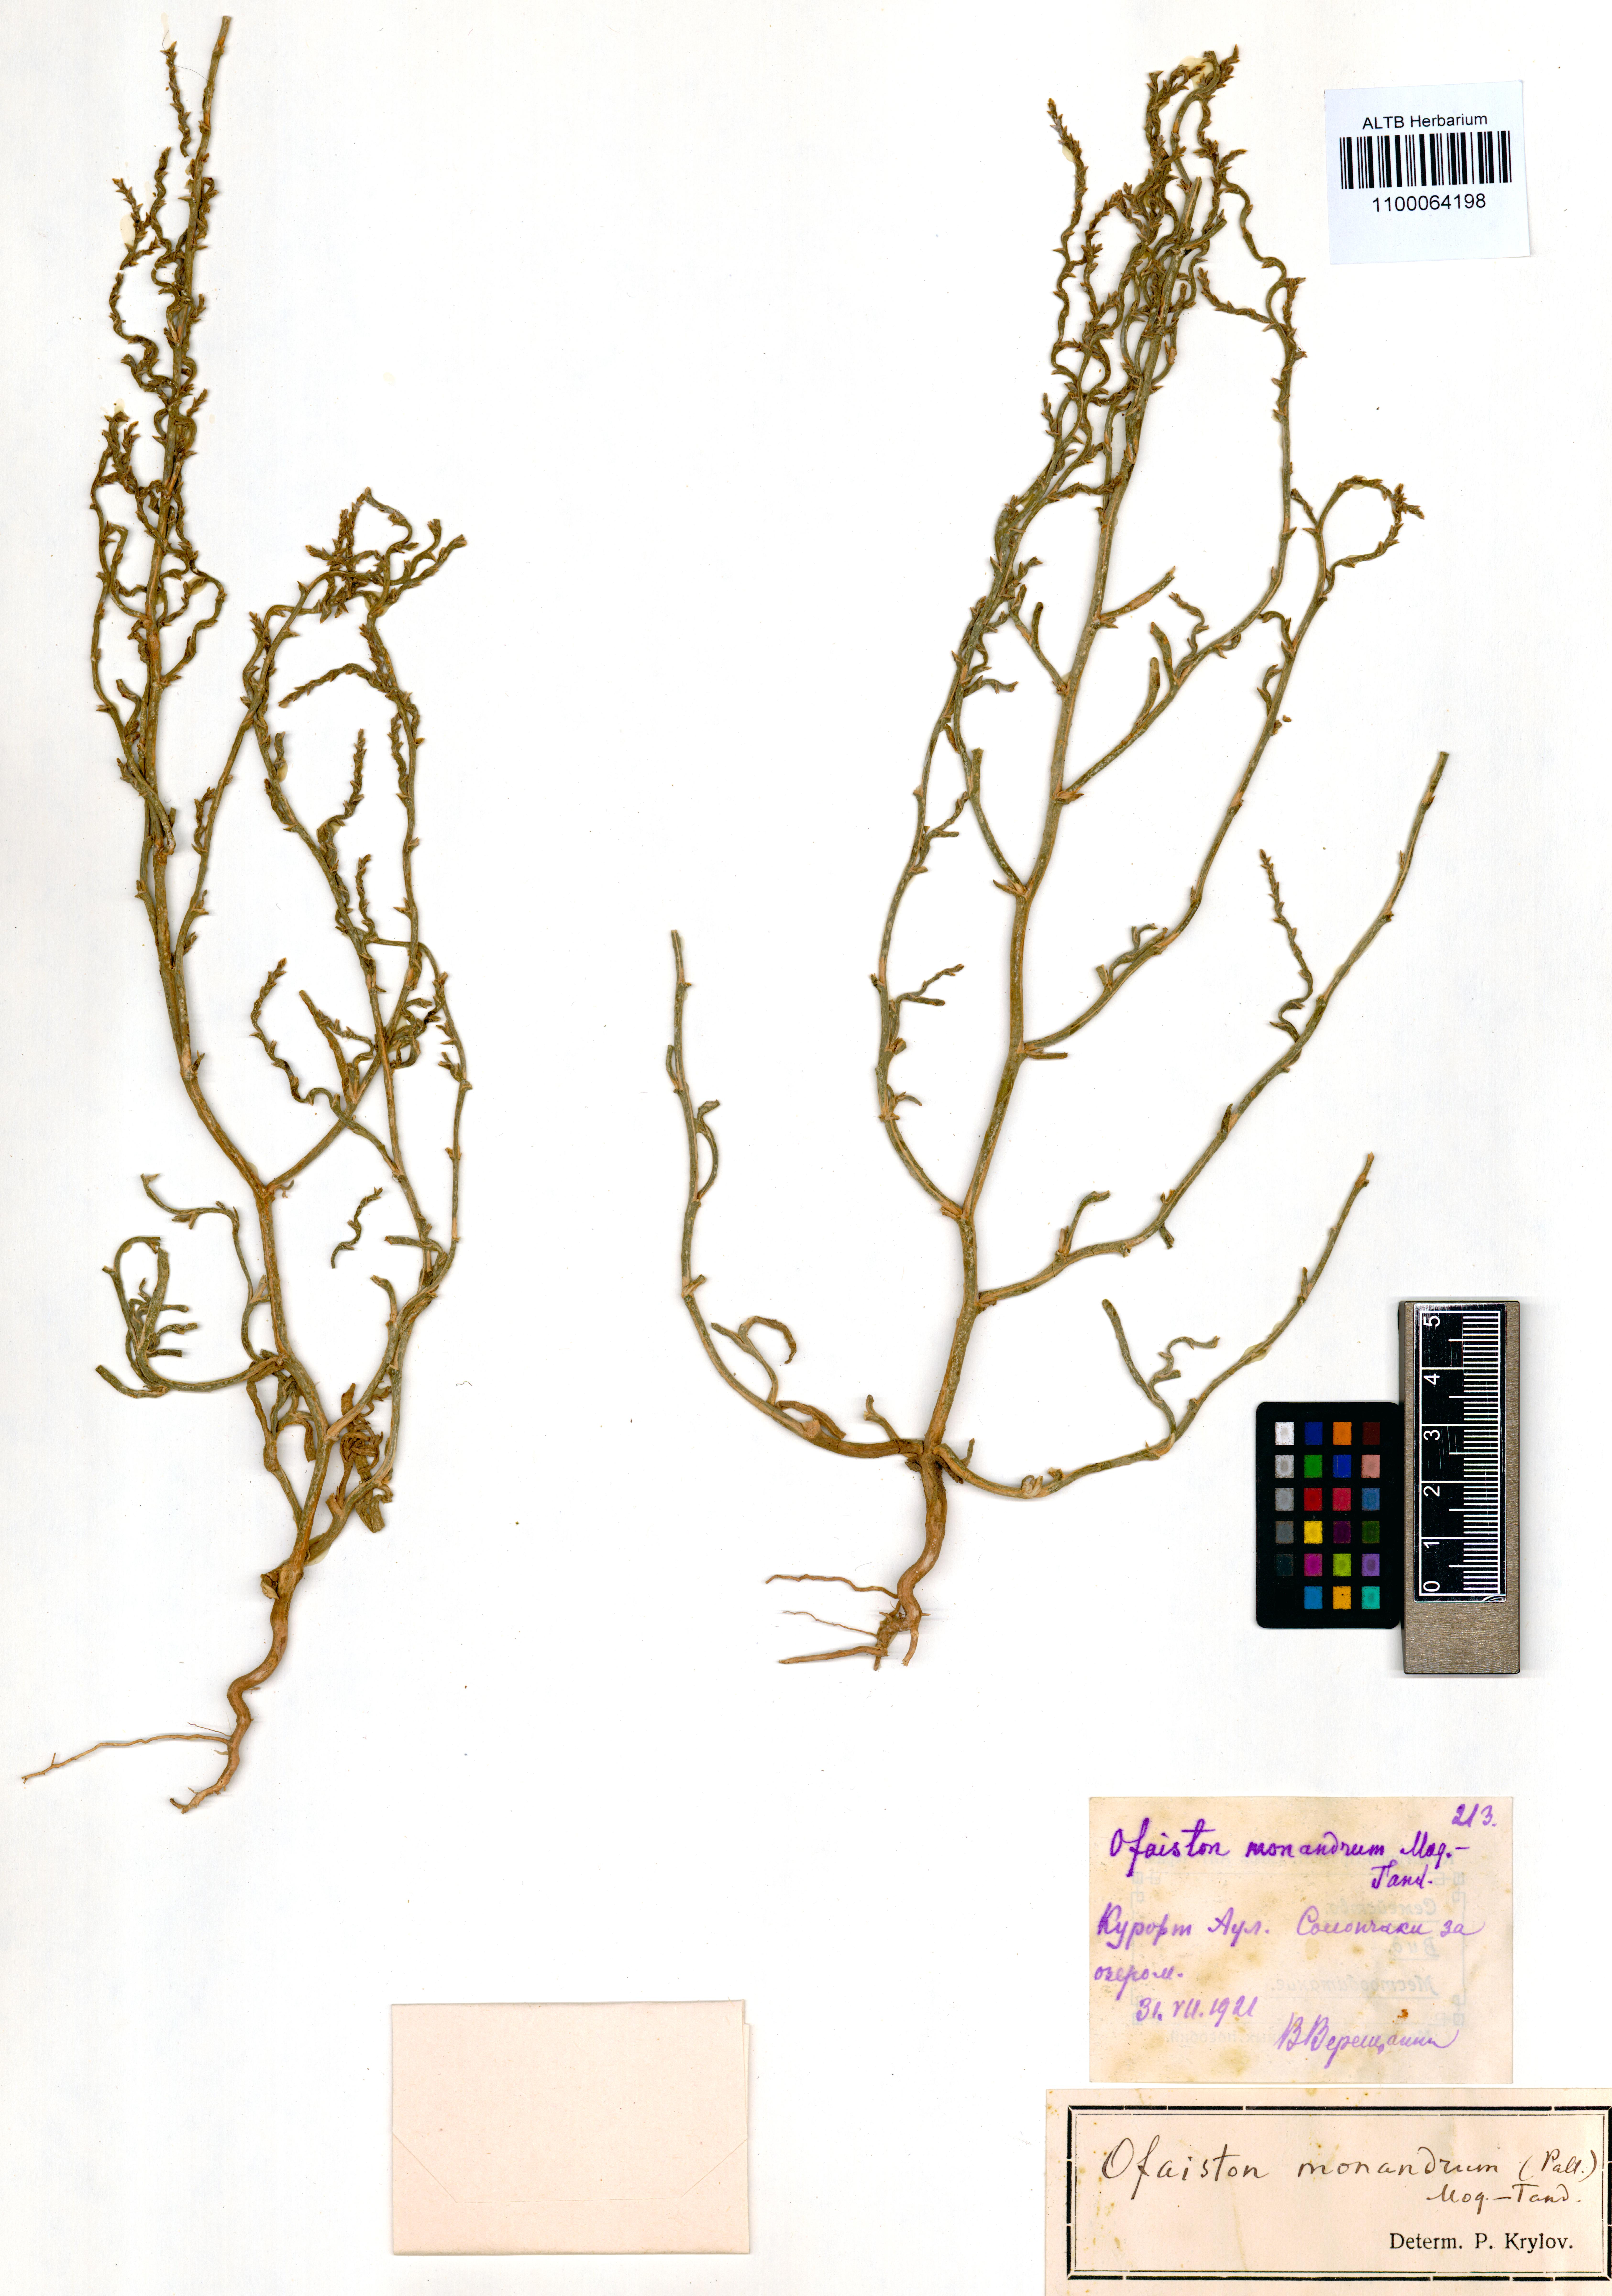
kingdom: Plantae
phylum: Tracheophyta
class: Magnoliopsida
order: Caryophyllales
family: Amaranthaceae
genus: Ofaiston
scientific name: Ofaiston monandrum
